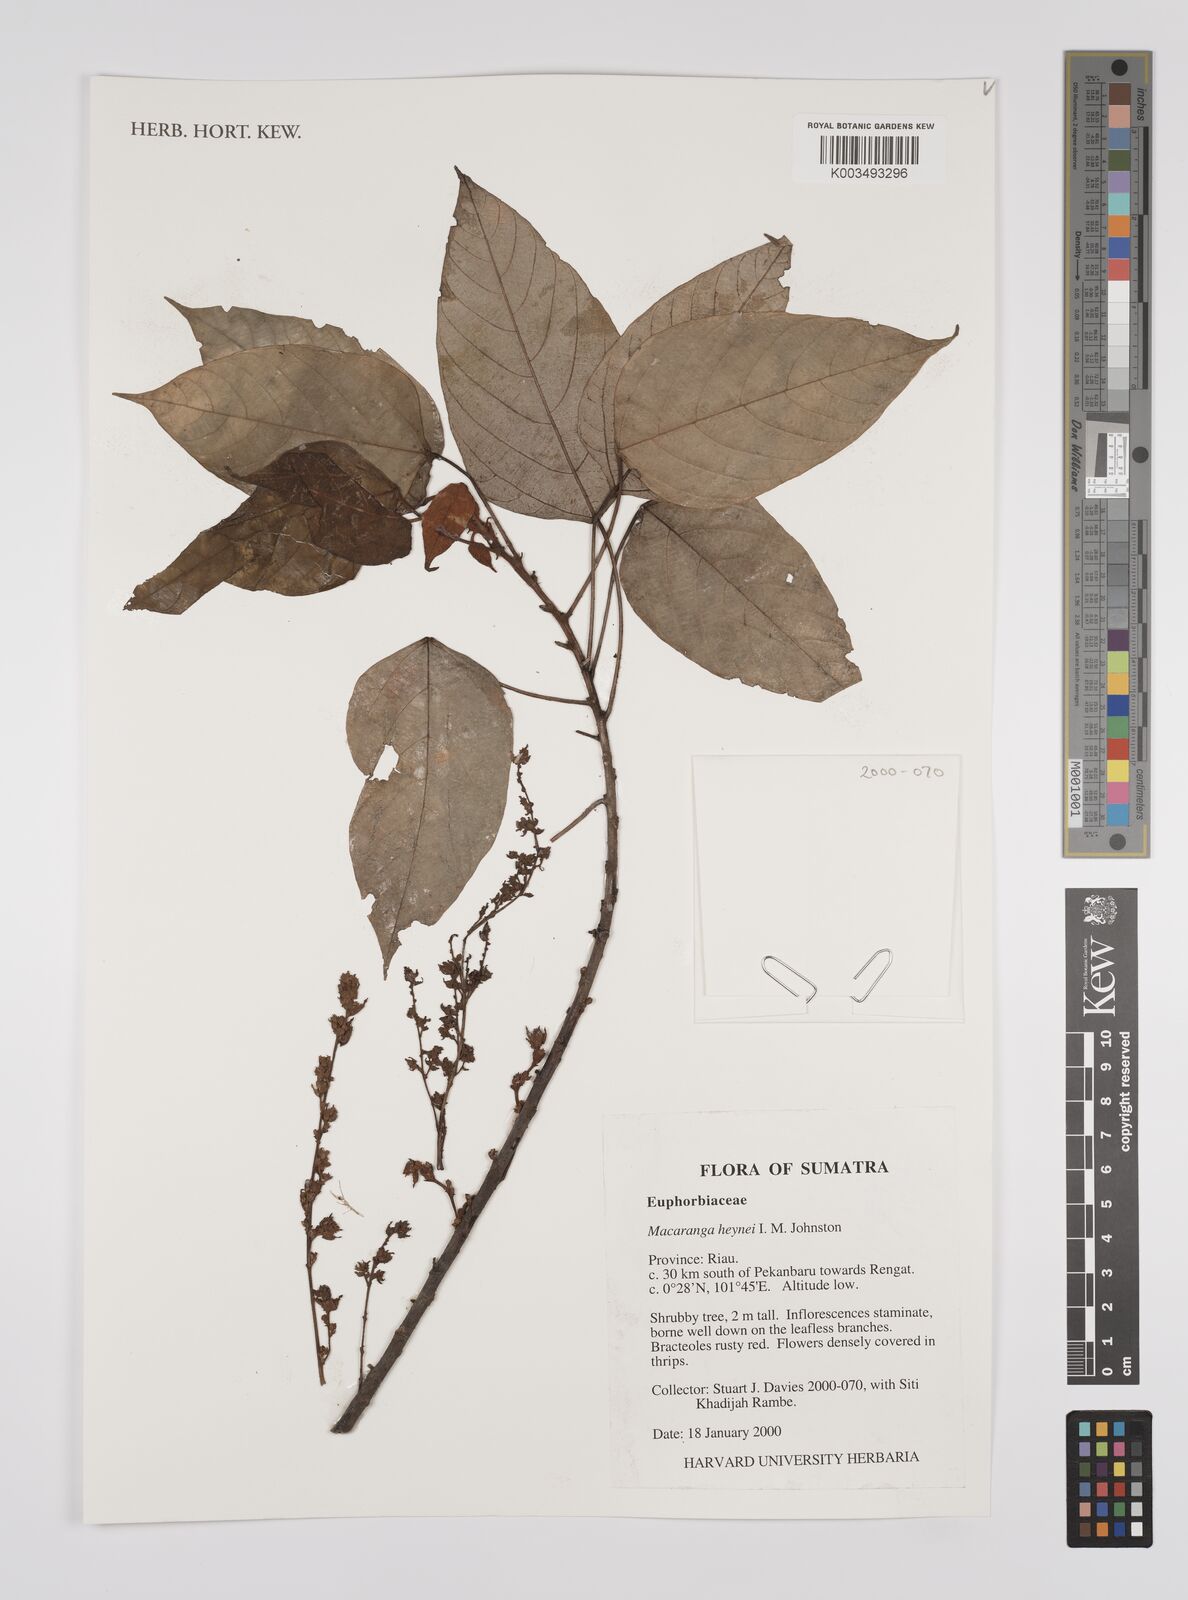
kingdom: Plantae
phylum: Tracheophyta
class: Magnoliopsida
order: Malpighiales
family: Euphorbiaceae
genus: Macaranga
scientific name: Macaranga heynei
